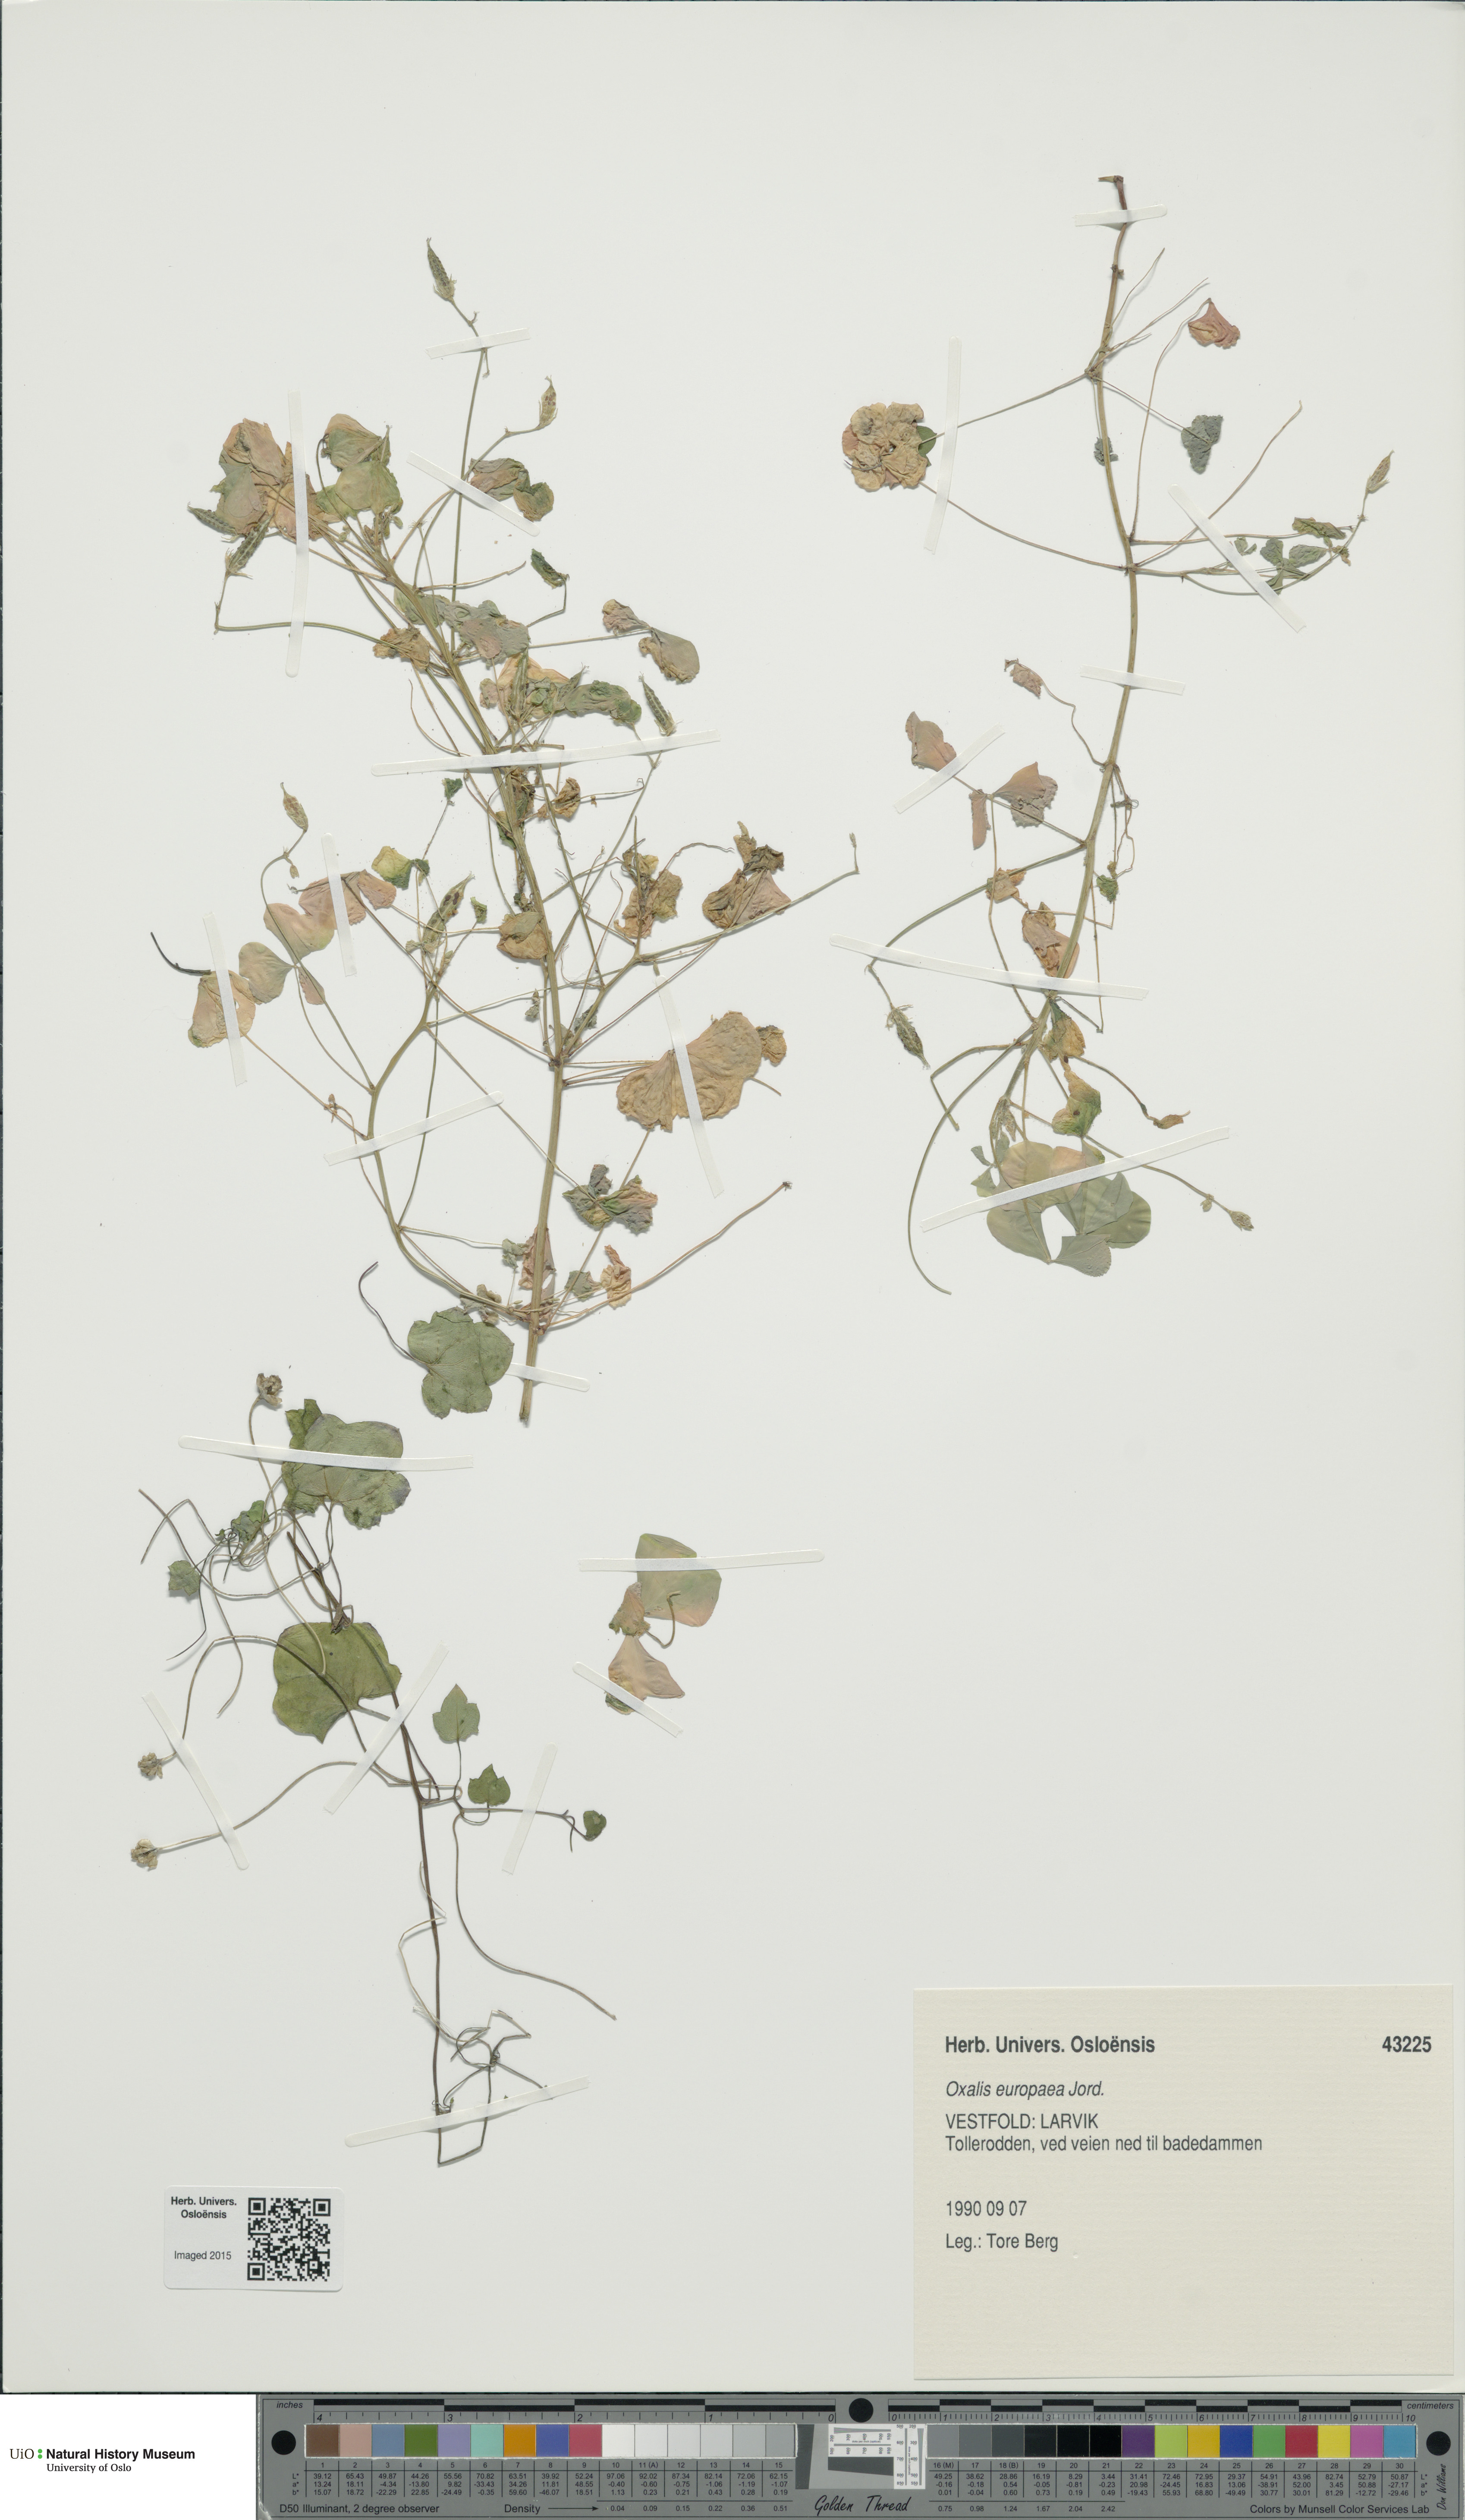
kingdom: Plantae
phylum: Tracheophyta
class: Magnoliopsida
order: Oxalidales
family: Oxalidaceae
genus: Oxalis
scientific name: Oxalis stricta
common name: Upright yellow-sorrel
